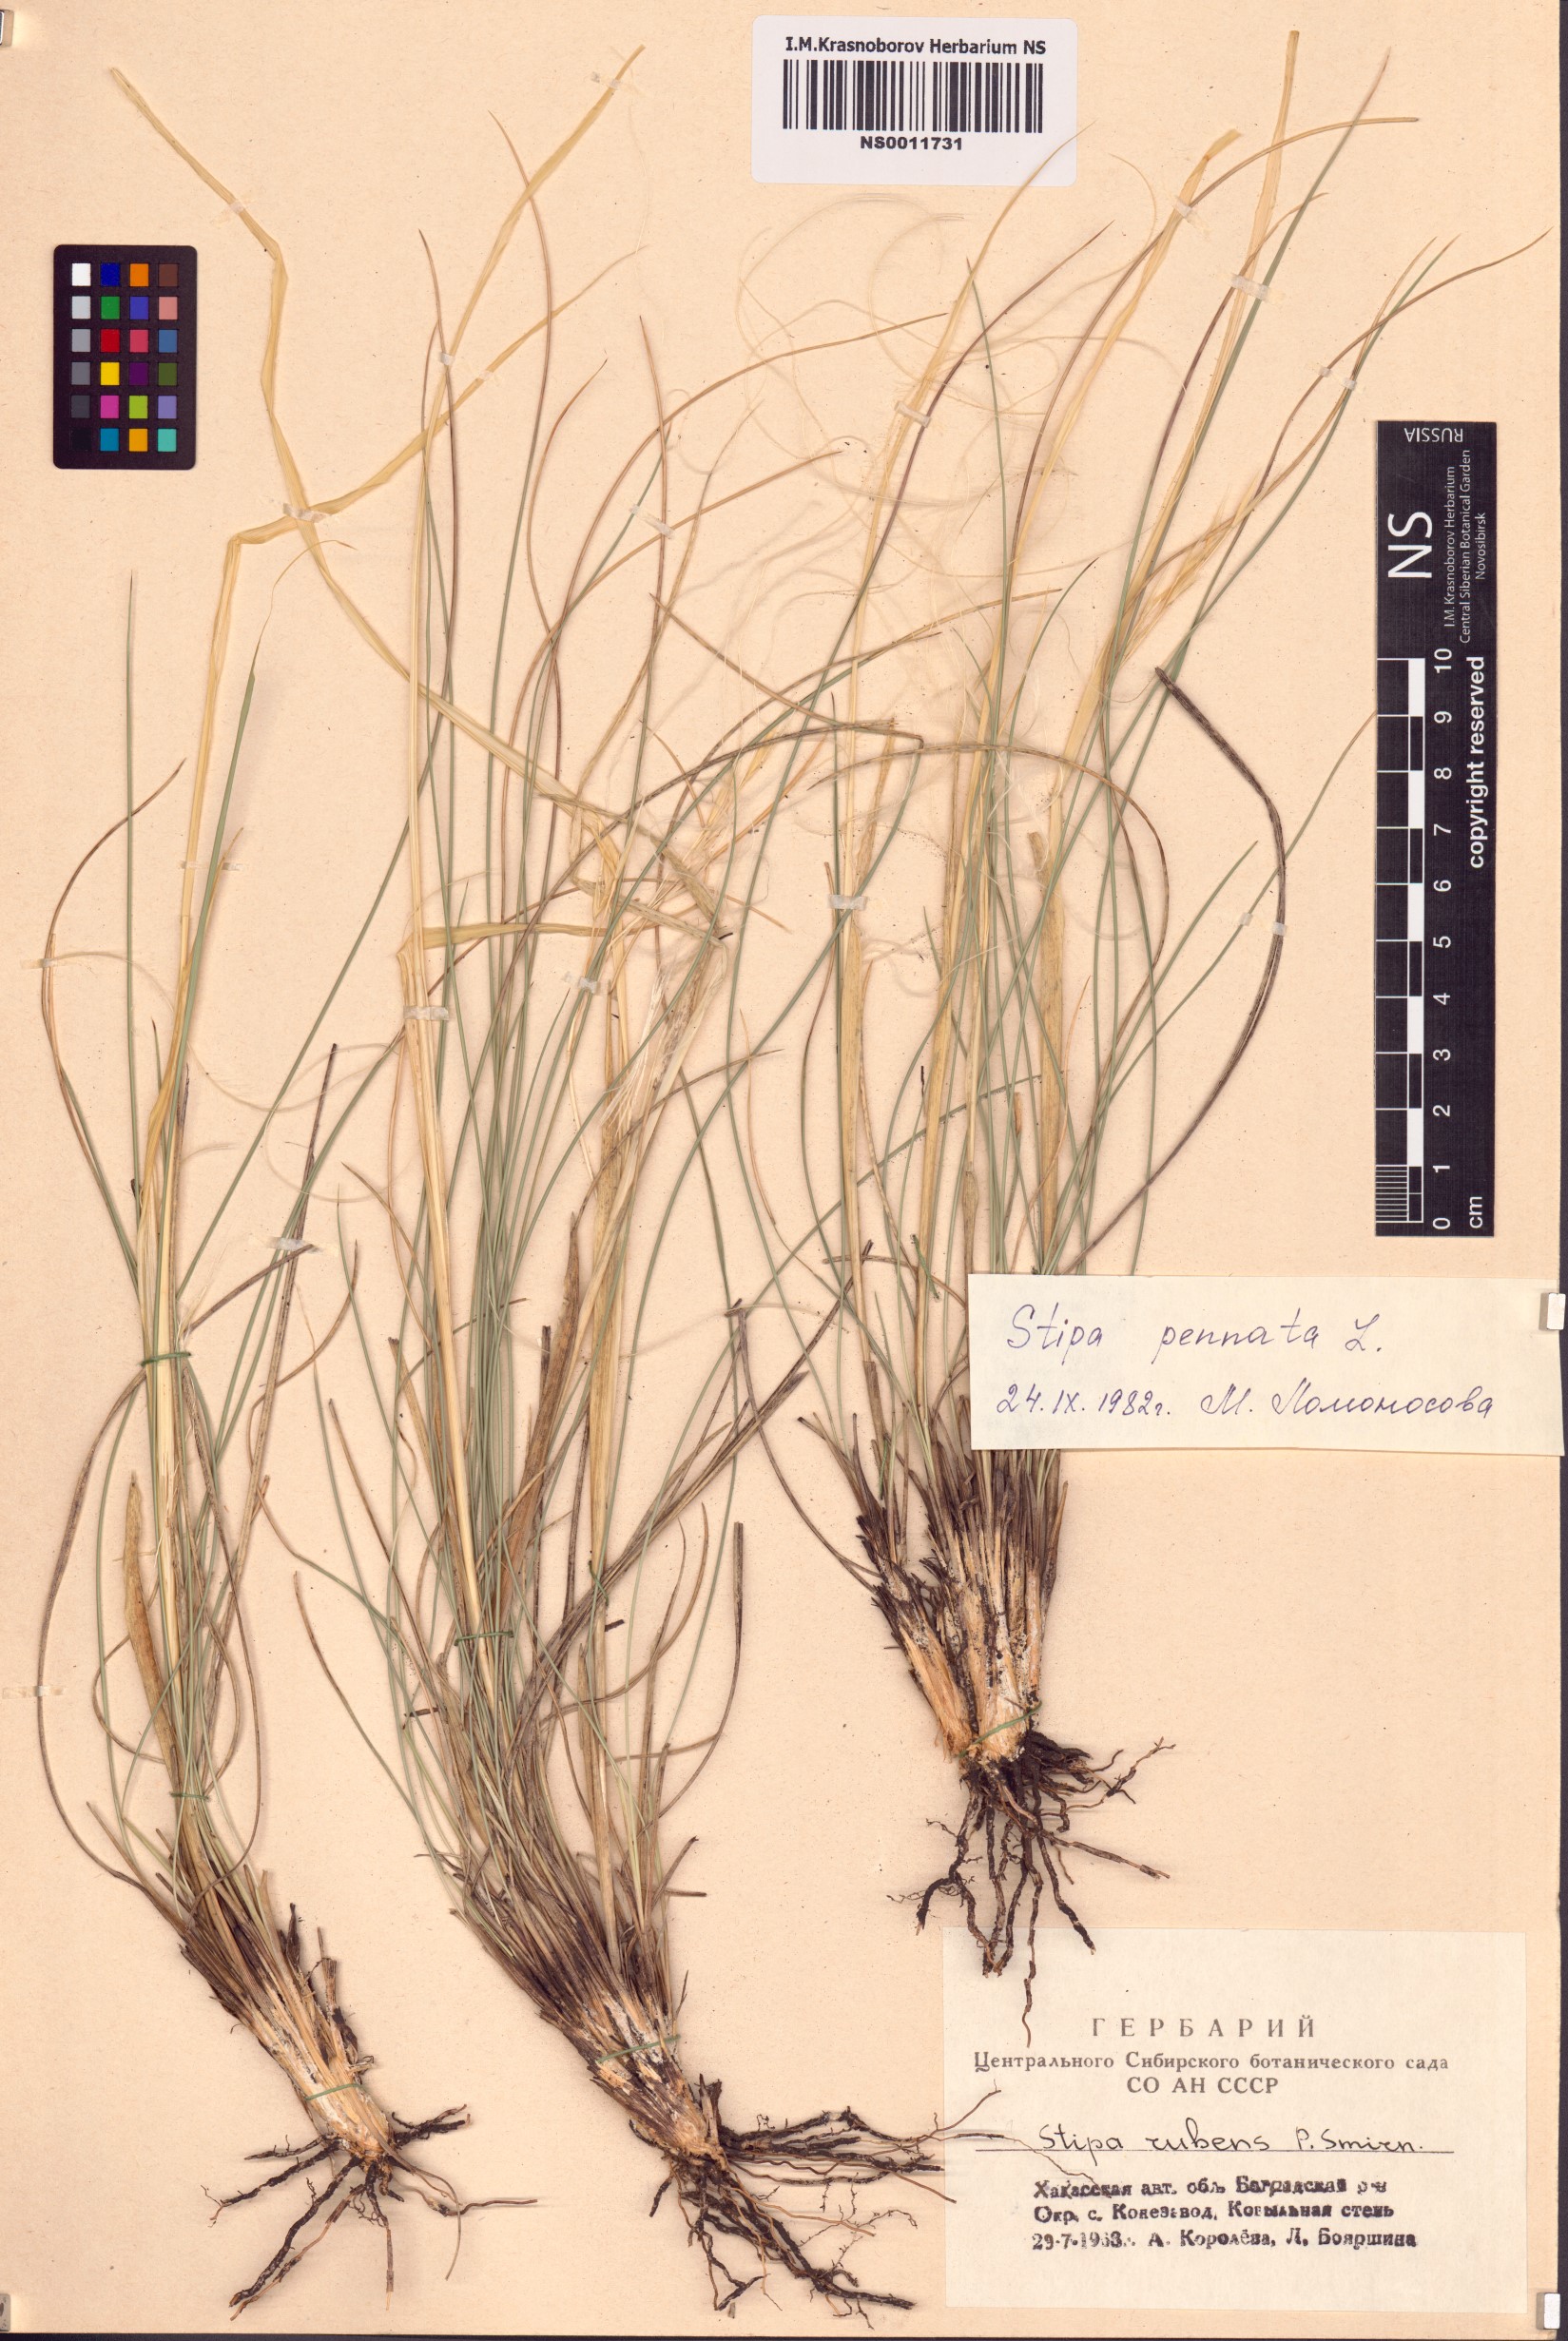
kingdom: Plantae
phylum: Tracheophyta
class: Liliopsida
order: Poales
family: Poaceae
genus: Stipa
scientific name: Stipa pennata
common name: European feather grass
